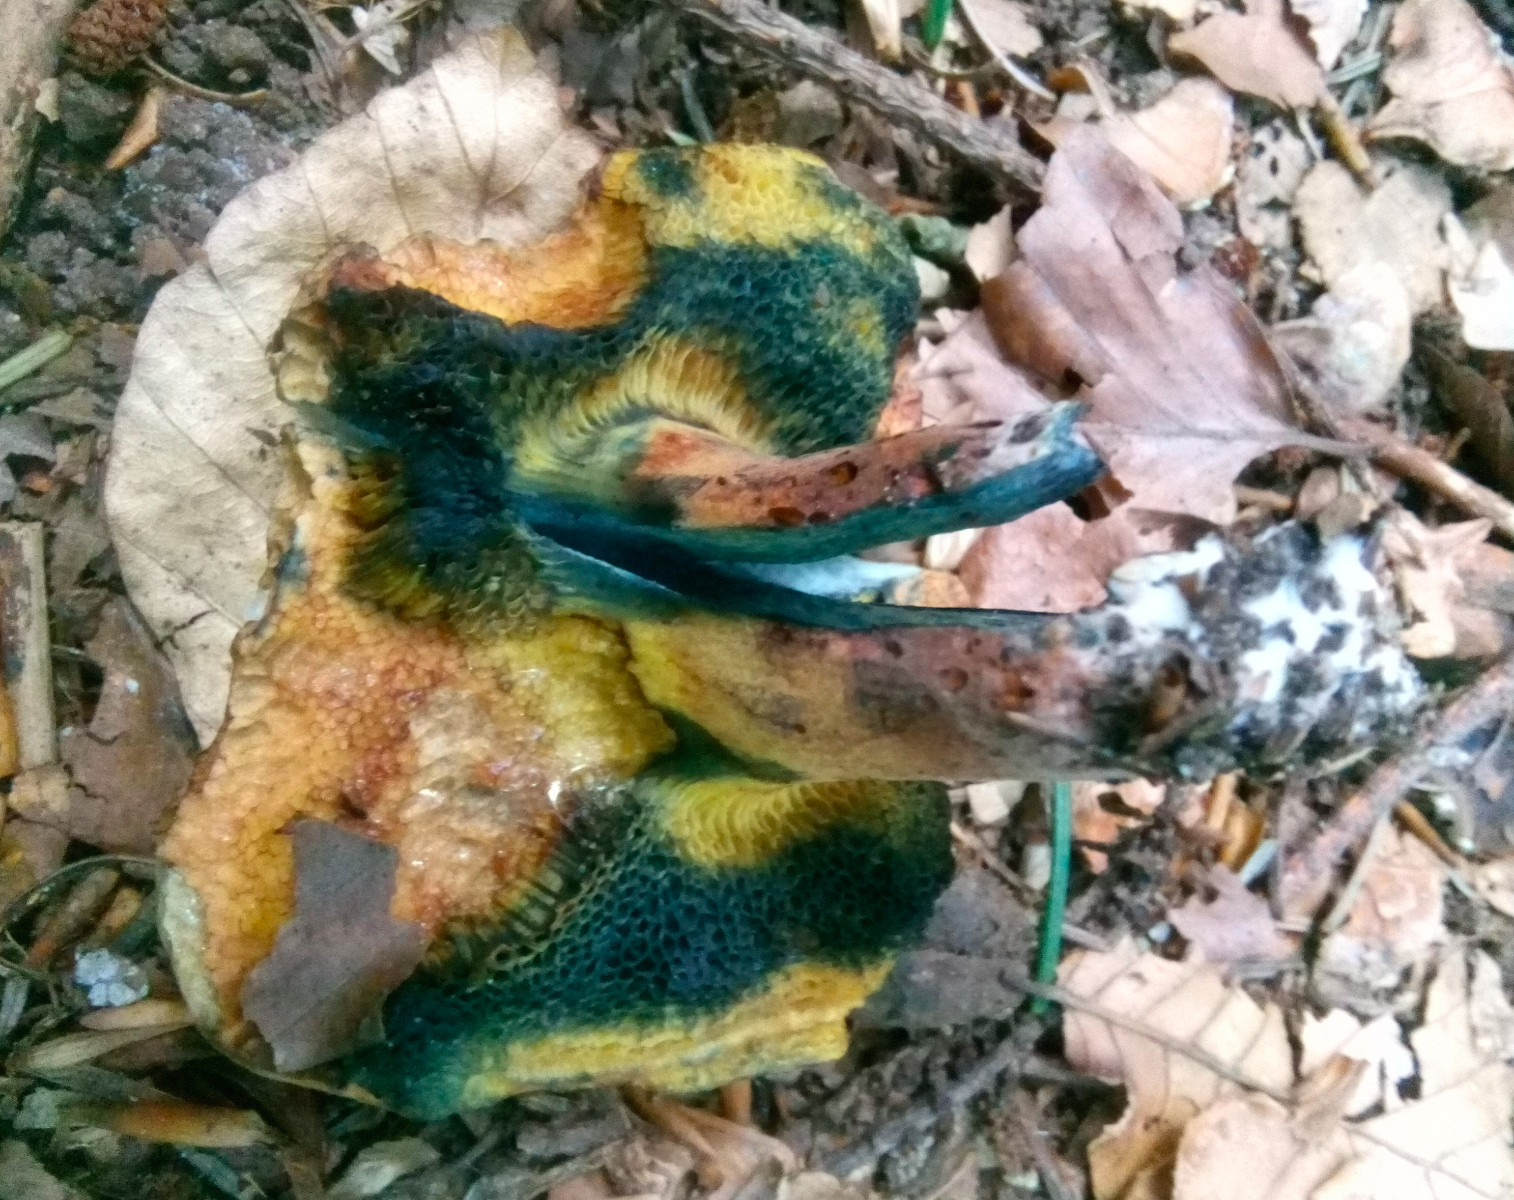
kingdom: Fungi
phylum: Basidiomycota
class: Agaricomycetes
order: Boletales
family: Boletaceae
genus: Cyanoboletus
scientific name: Cyanoboletus pulverulentus
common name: sortblånende rørhat
